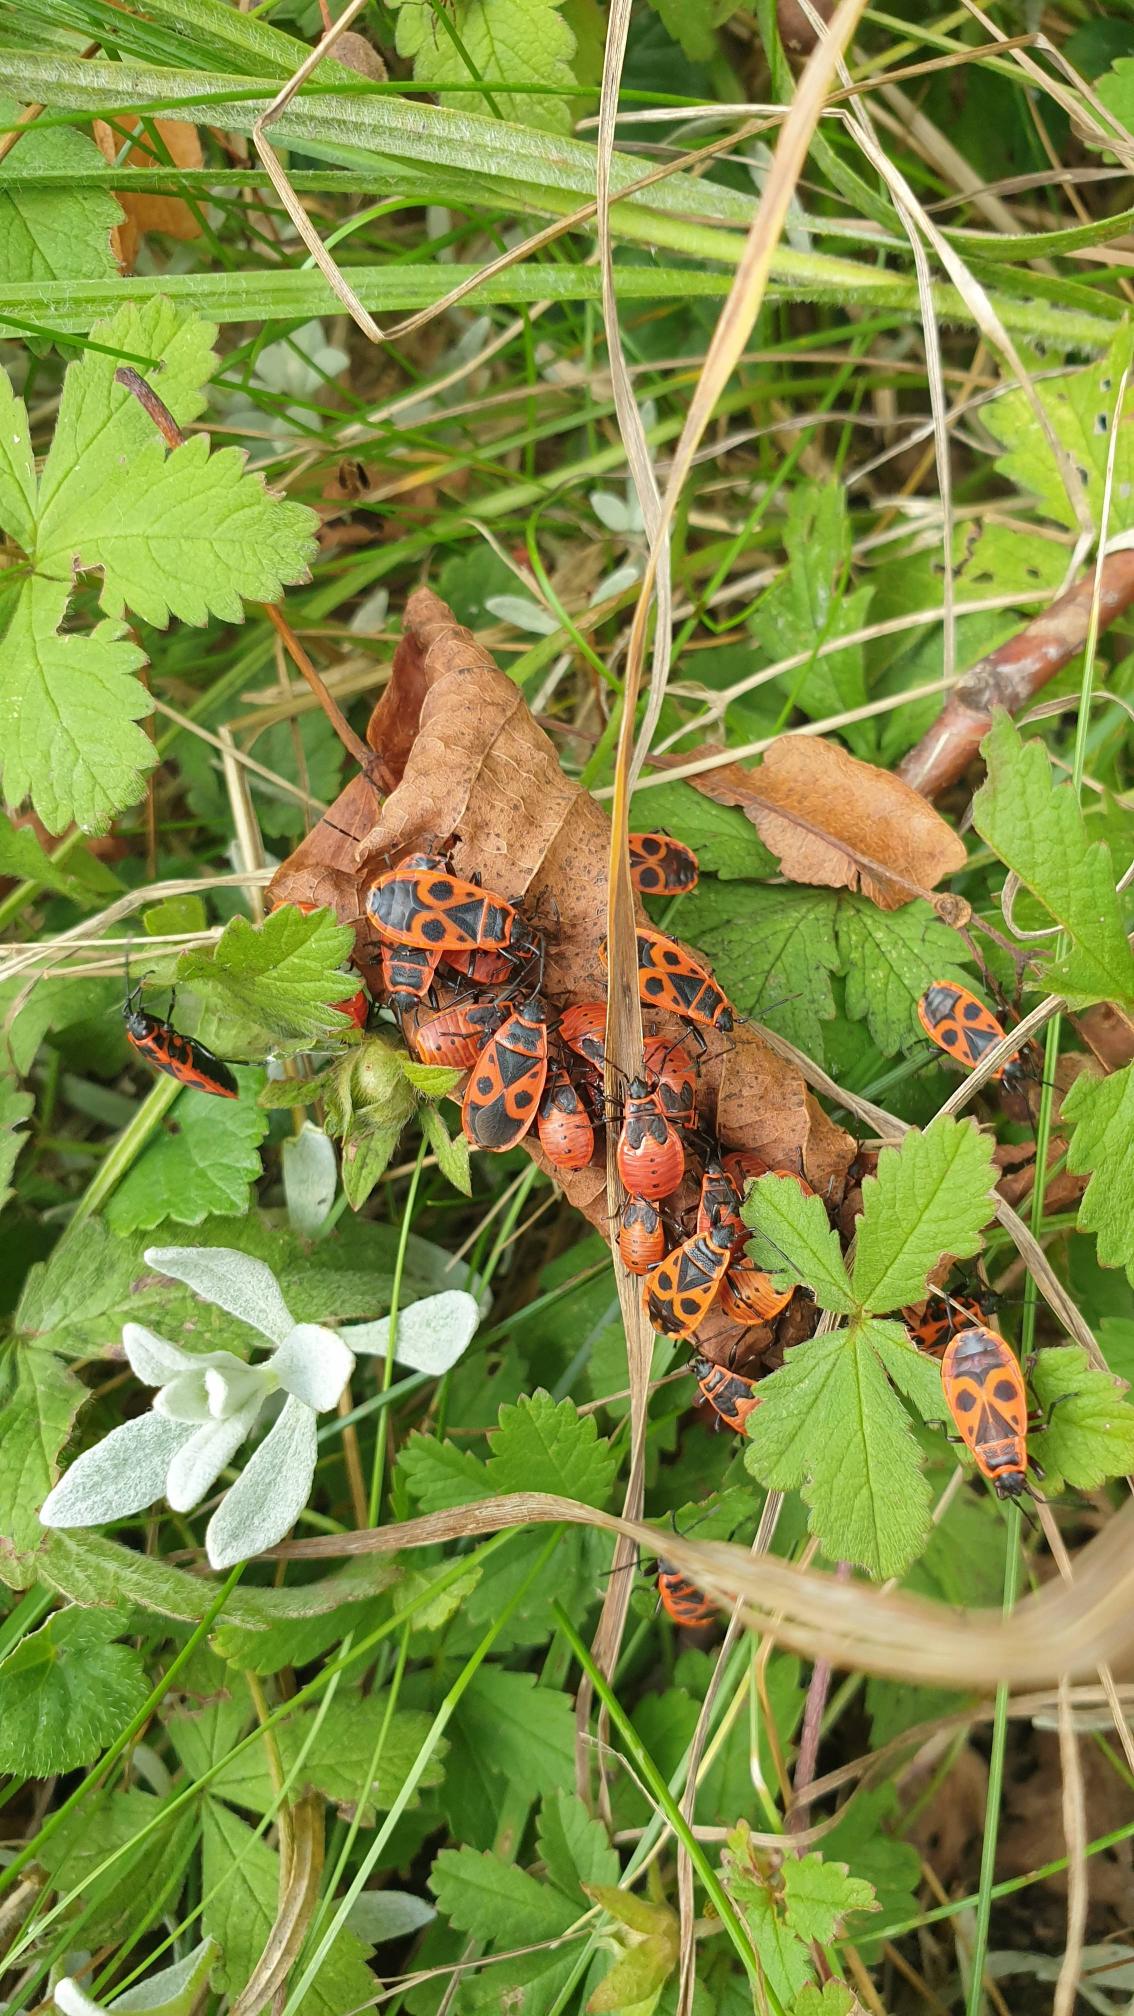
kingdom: Animalia
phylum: Arthropoda
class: Insecta
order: Hemiptera
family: Pyrrhocoridae
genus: Pyrrhocoris
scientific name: Pyrrhocoris apterus
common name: Ildtæge
